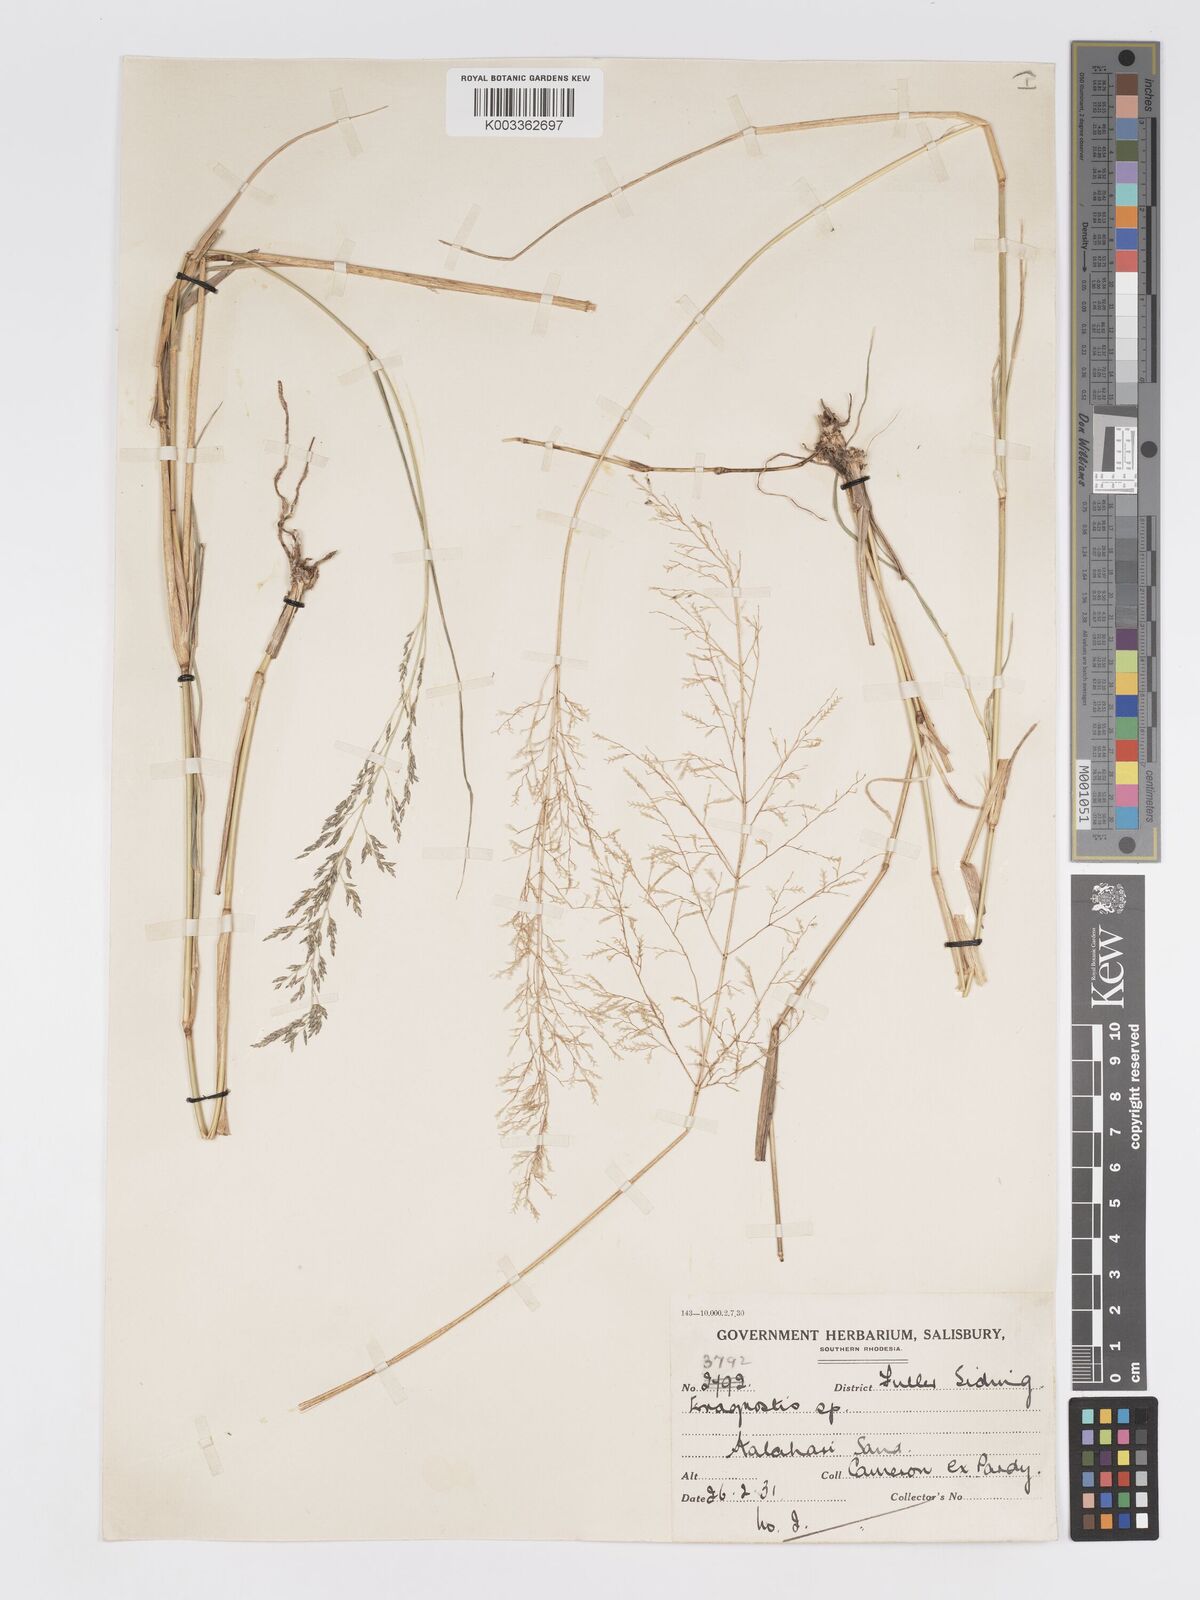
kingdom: Plantae
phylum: Tracheophyta
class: Liliopsida
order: Poales
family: Poaceae
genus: Eragrostis
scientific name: Eragrostis glandulosipedata
